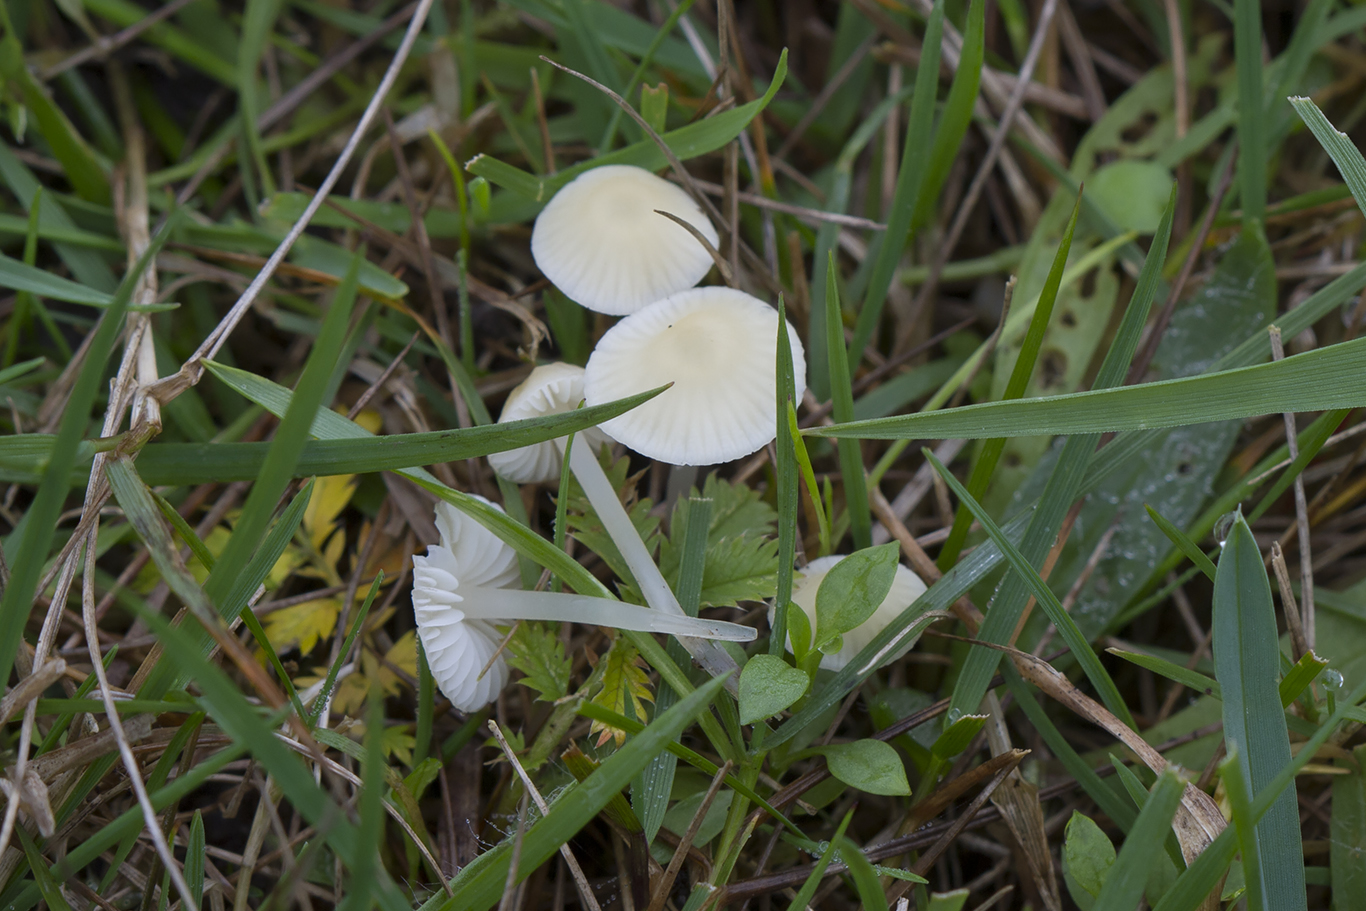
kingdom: Fungi
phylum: Basidiomycota
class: Agaricomycetes
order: Agaricales
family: Mycenaceae
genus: Atheniella
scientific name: Atheniella flavoalba
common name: gulhvid huesvamp
